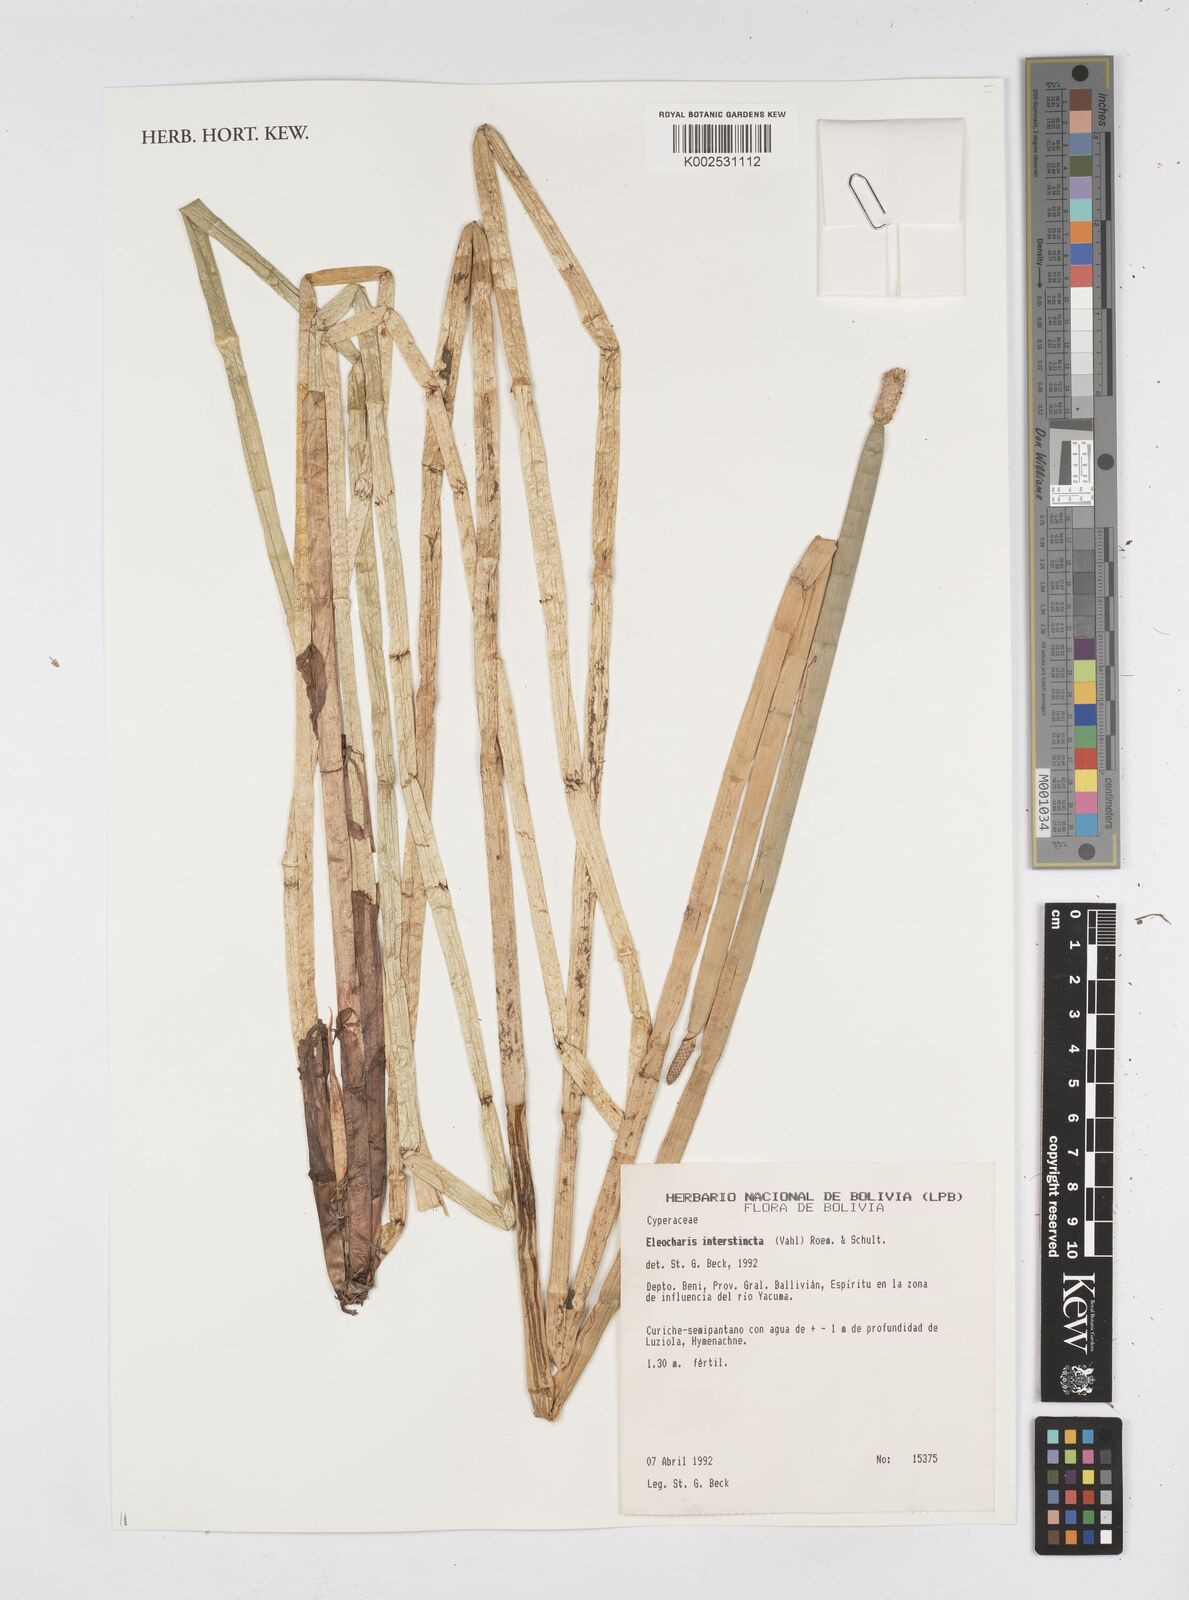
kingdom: Plantae
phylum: Tracheophyta
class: Liliopsida
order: Poales
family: Cyperaceae
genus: Eleocharis
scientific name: Eleocharis interstincta
